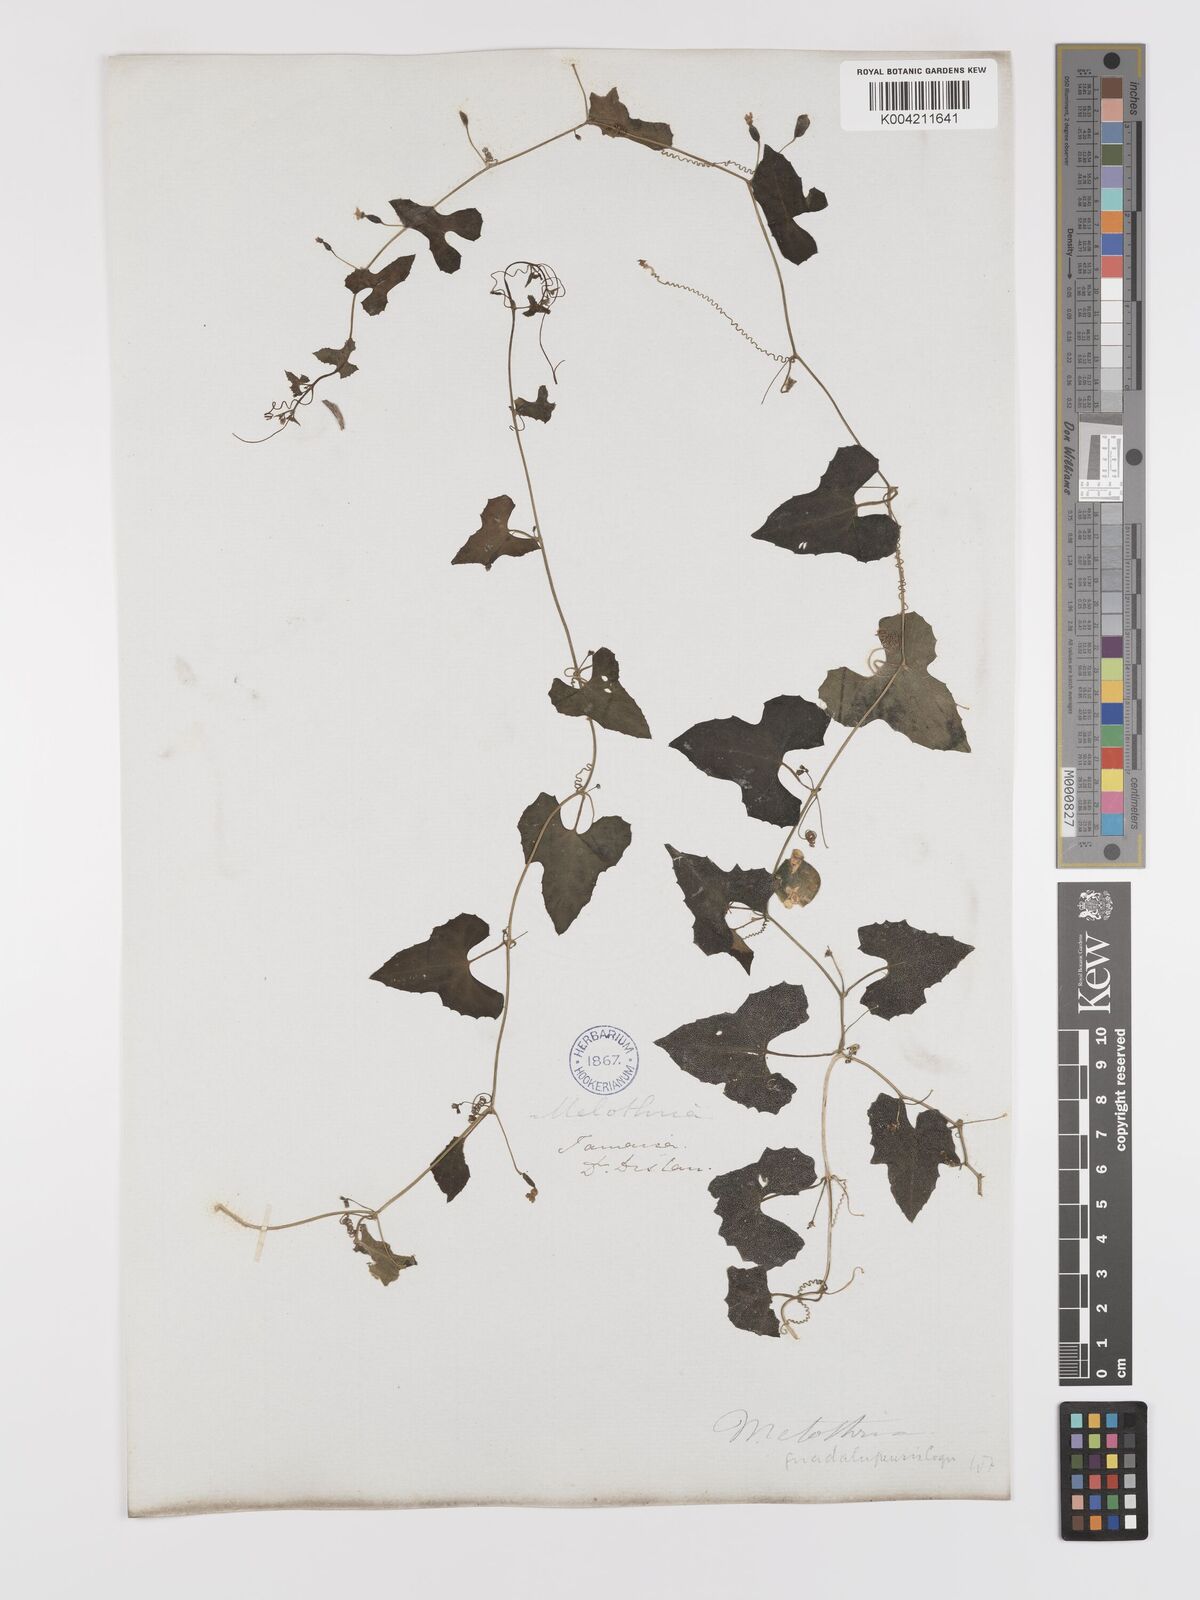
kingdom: Plantae
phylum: Tracheophyta
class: Magnoliopsida
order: Cucurbitales
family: Cucurbitaceae
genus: Melothria
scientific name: Melothria
